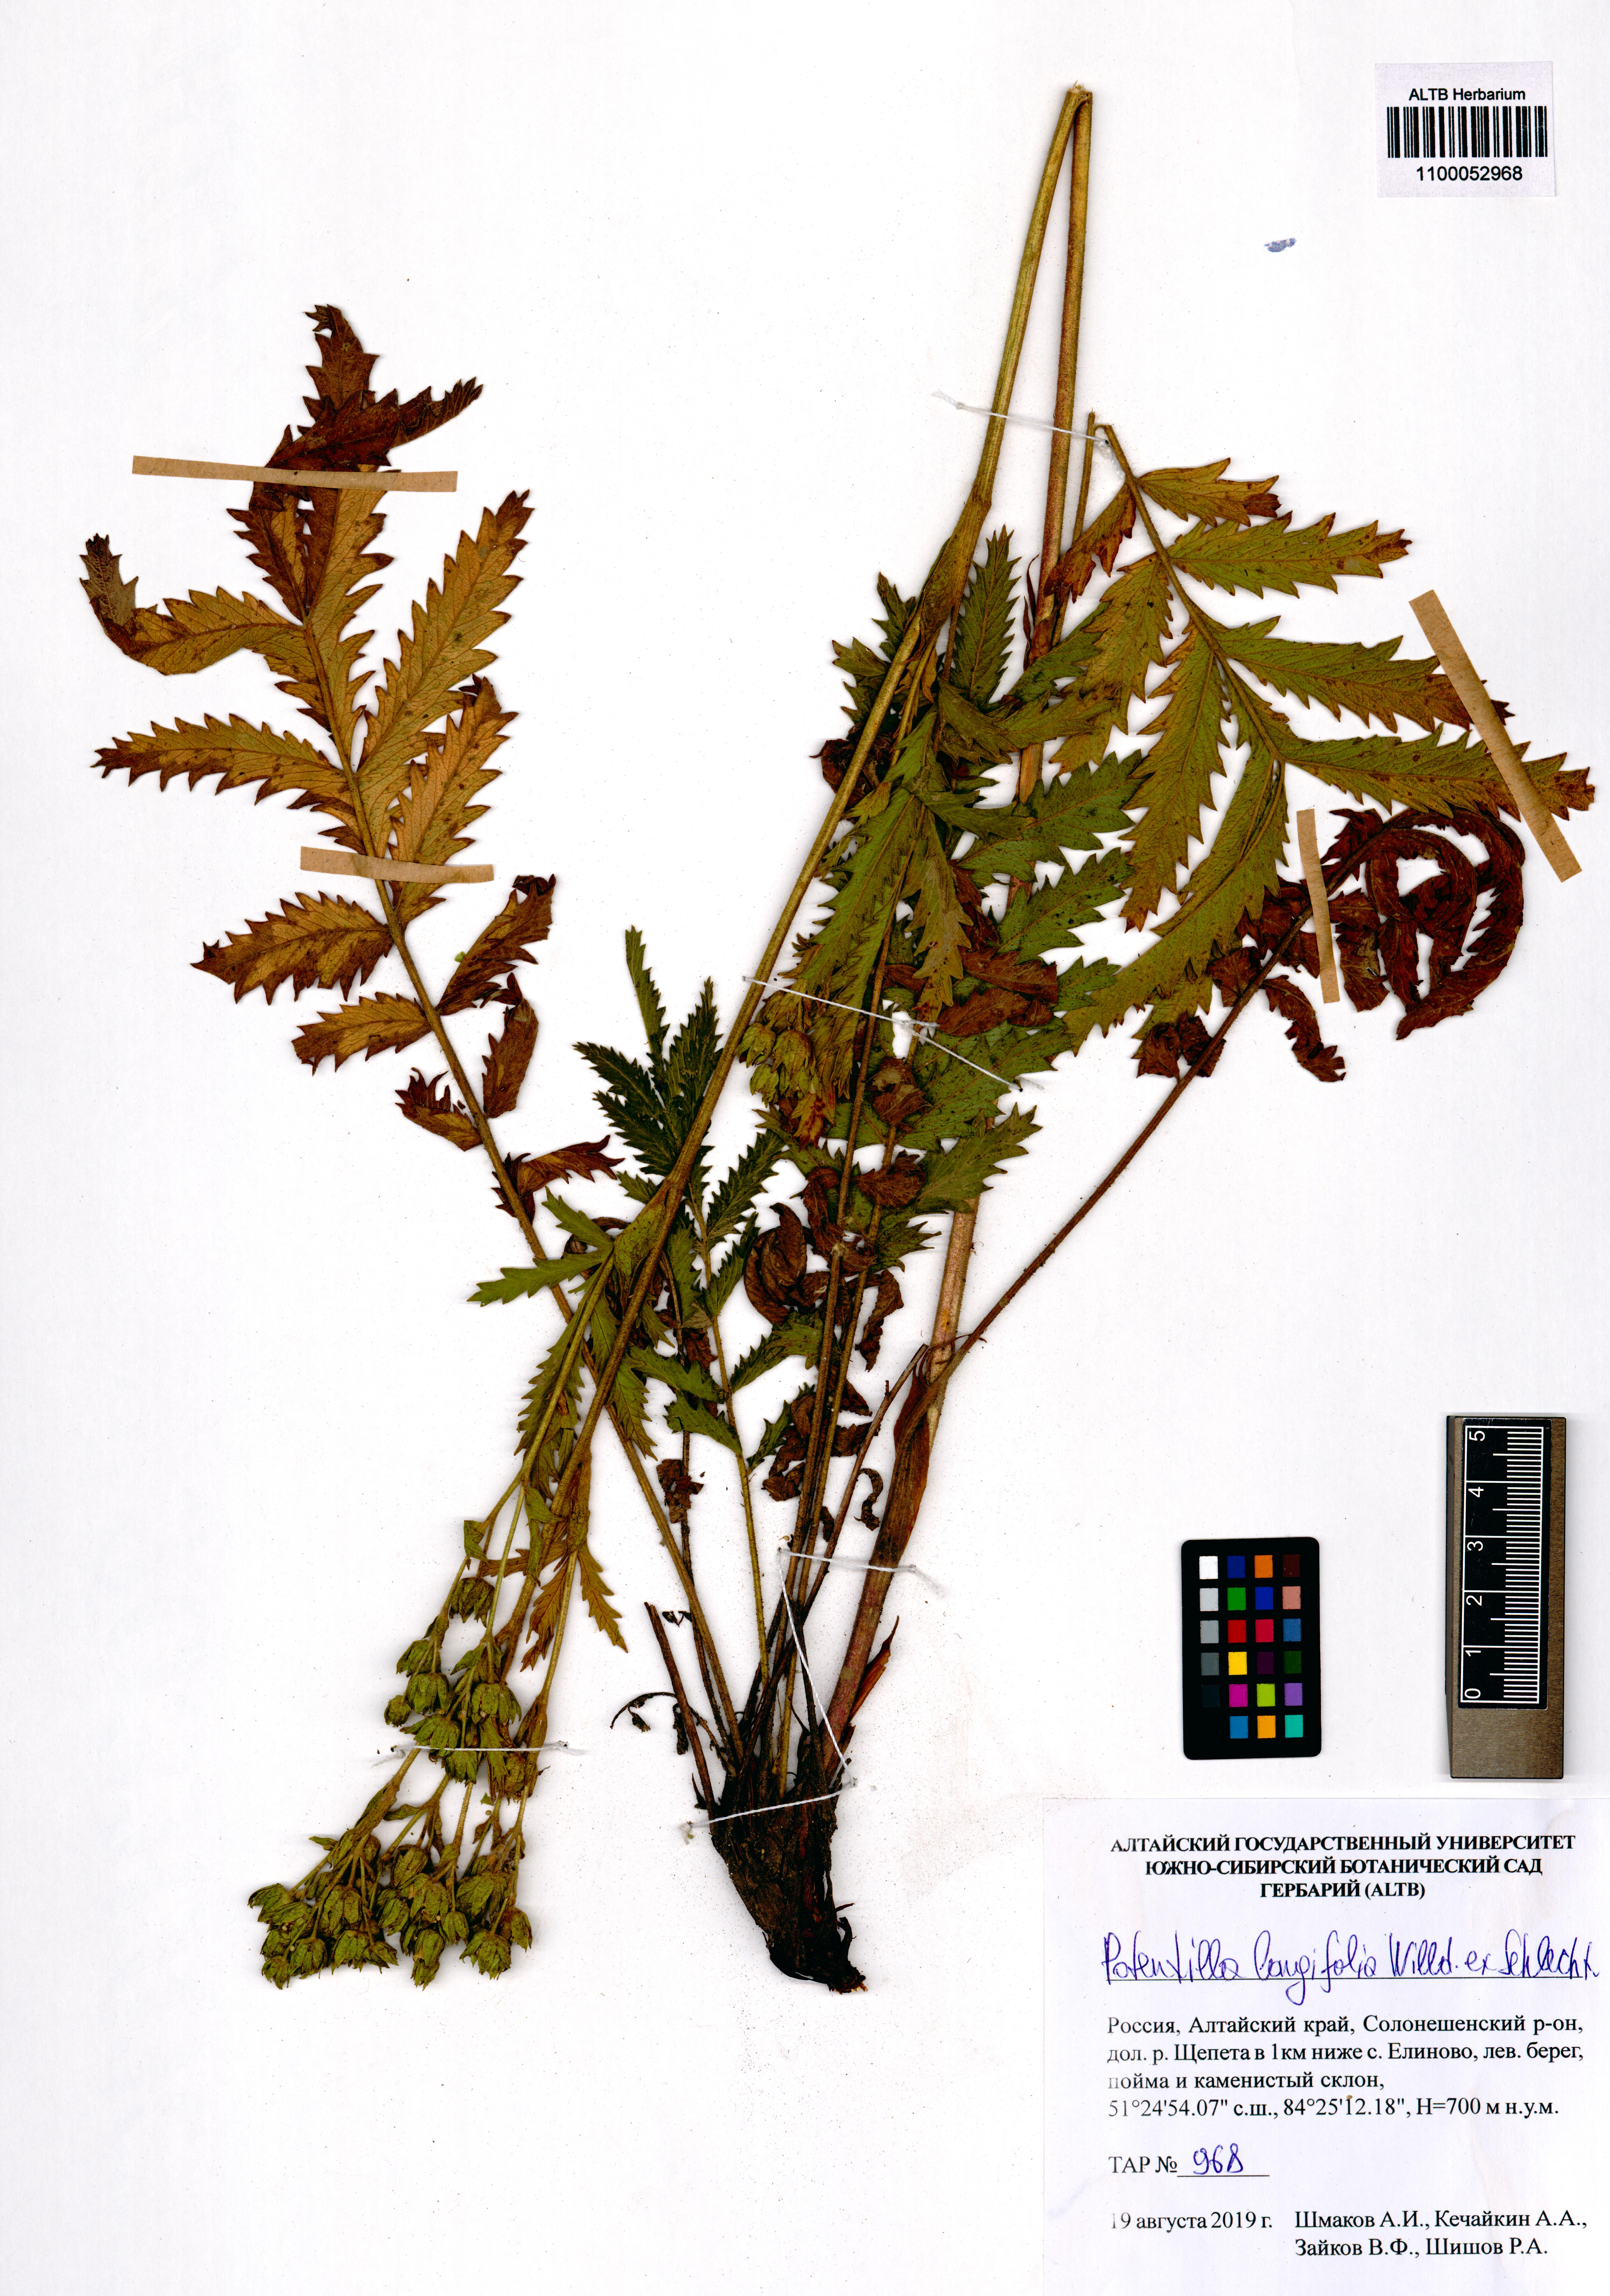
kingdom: Plantae
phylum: Tracheophyta
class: Magnoliopsida
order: Rosales
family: Rosaceae
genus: Potentilla
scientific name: Potentilla longifolia
